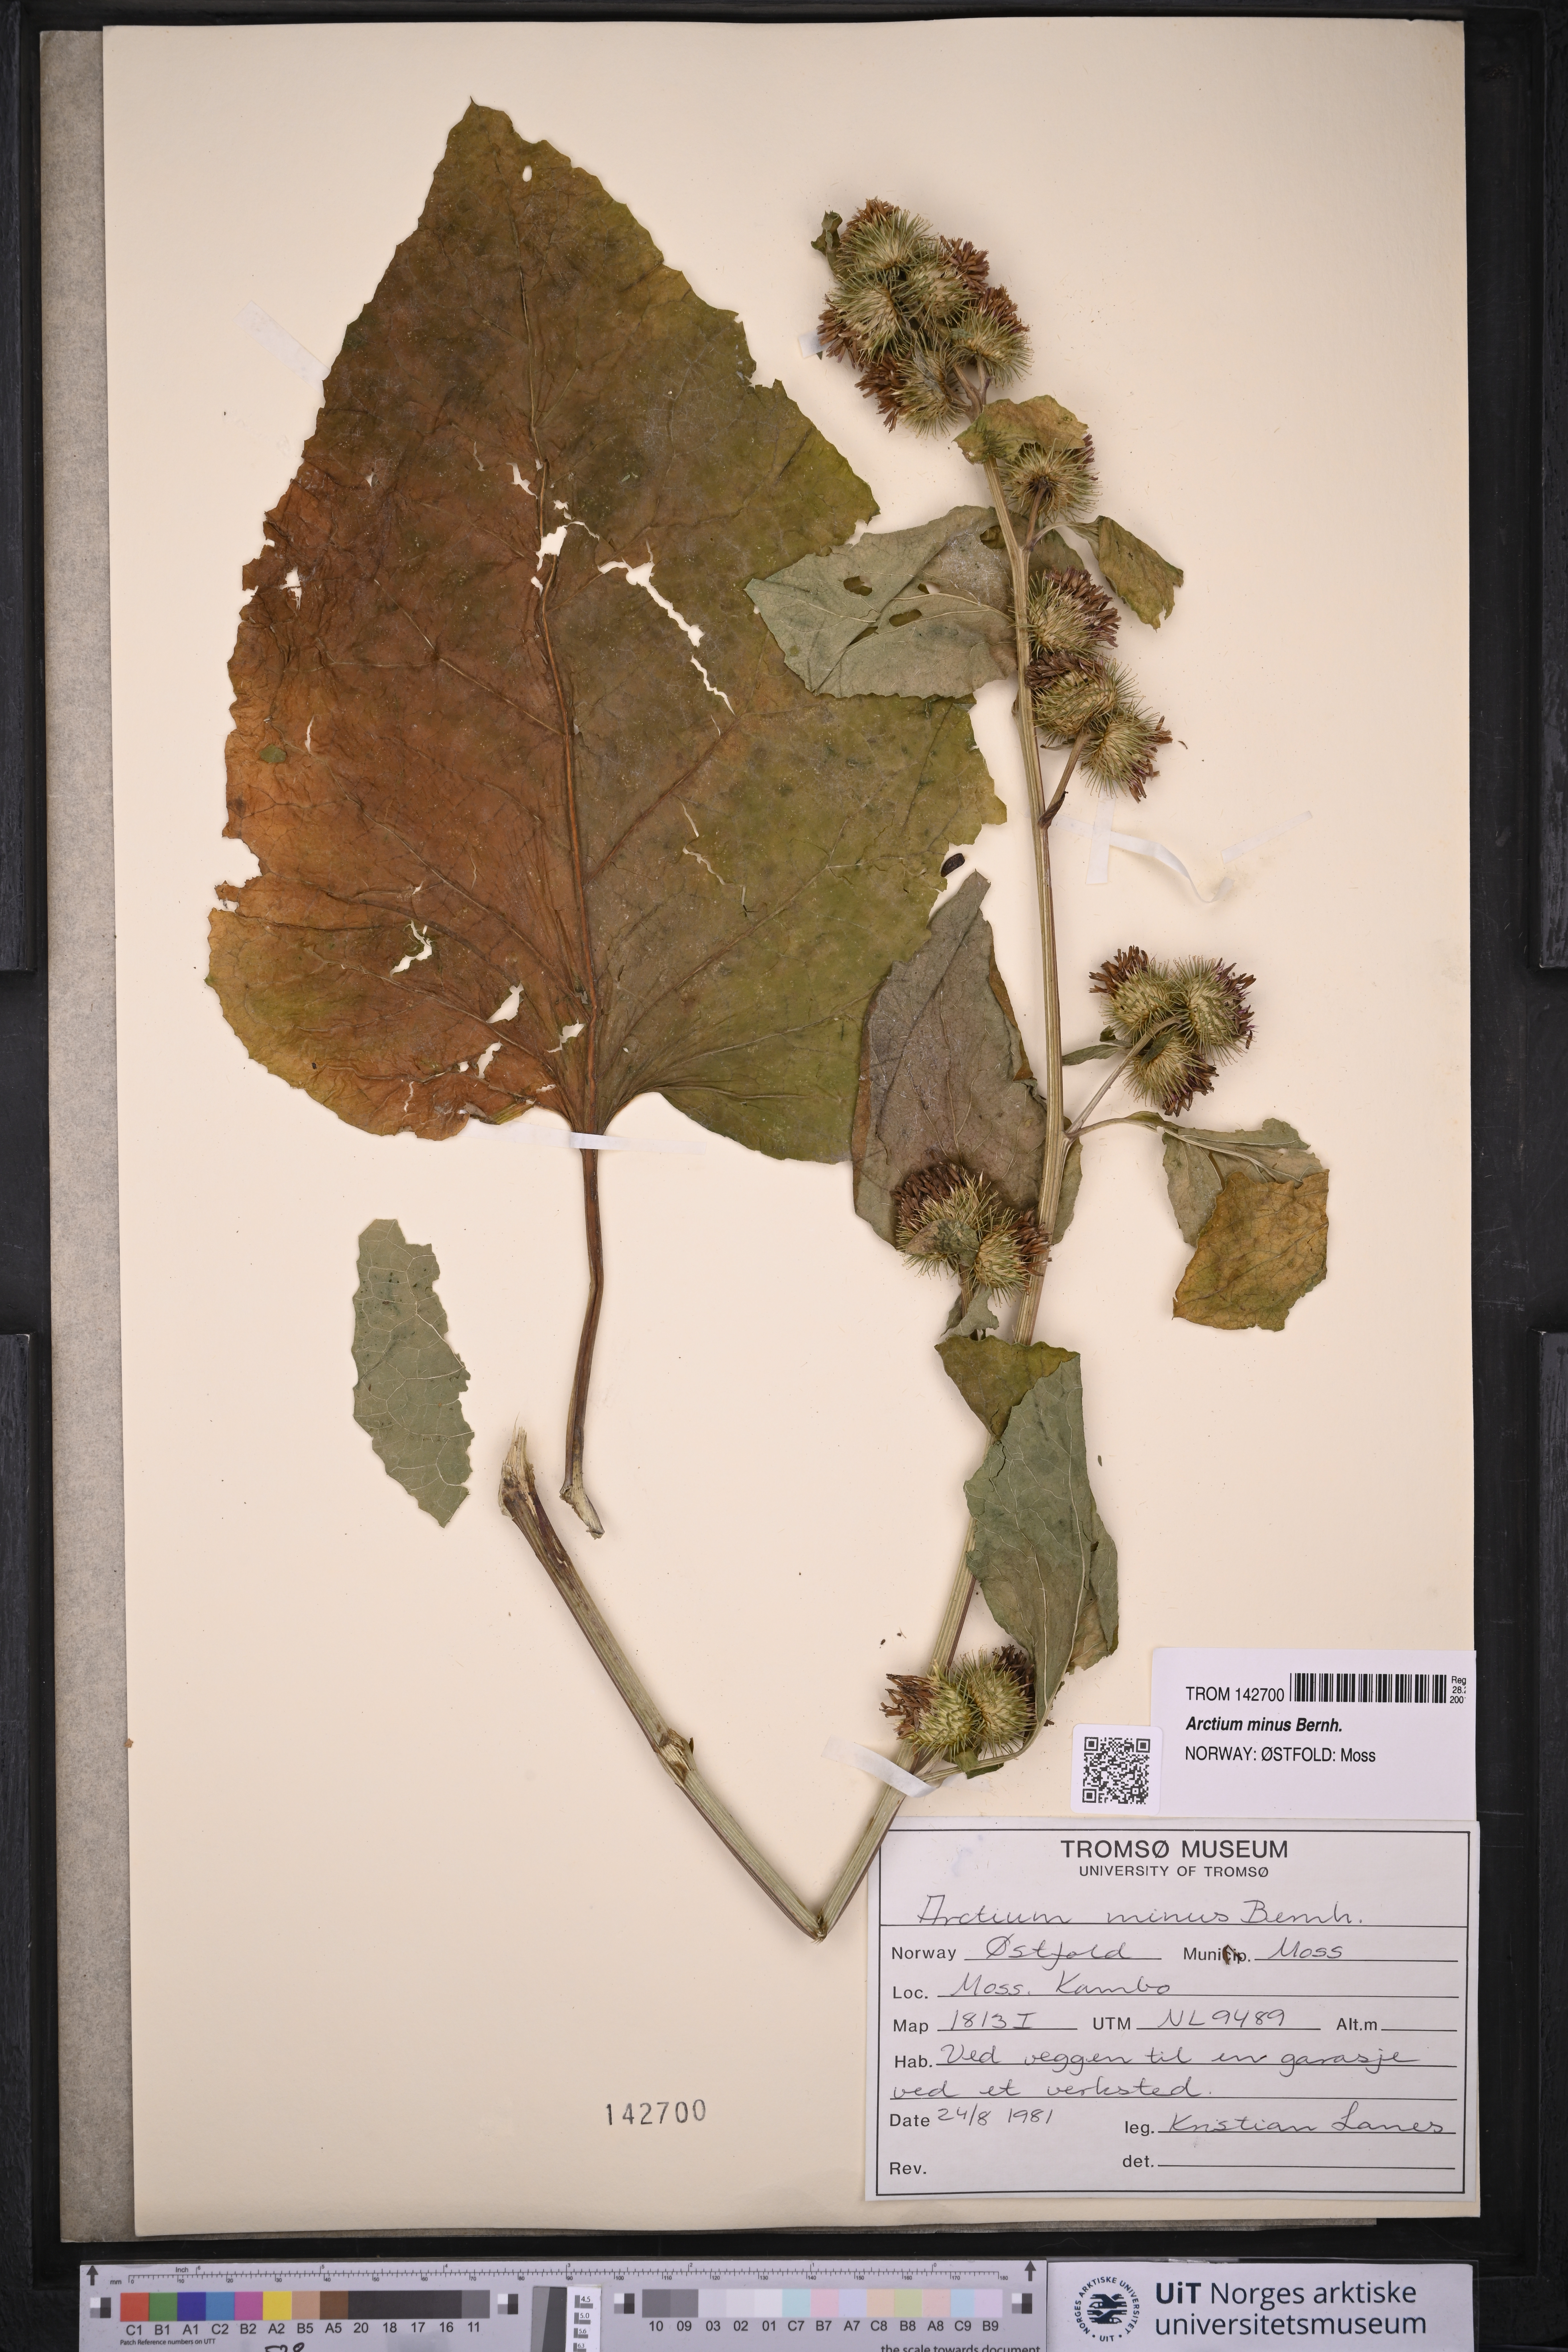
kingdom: Plantae
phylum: Tracheophyta
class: Magnoliopsida
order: Asterales
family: Asteraceae
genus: Arctium
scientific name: Arctium minus
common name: Lesser burdock
